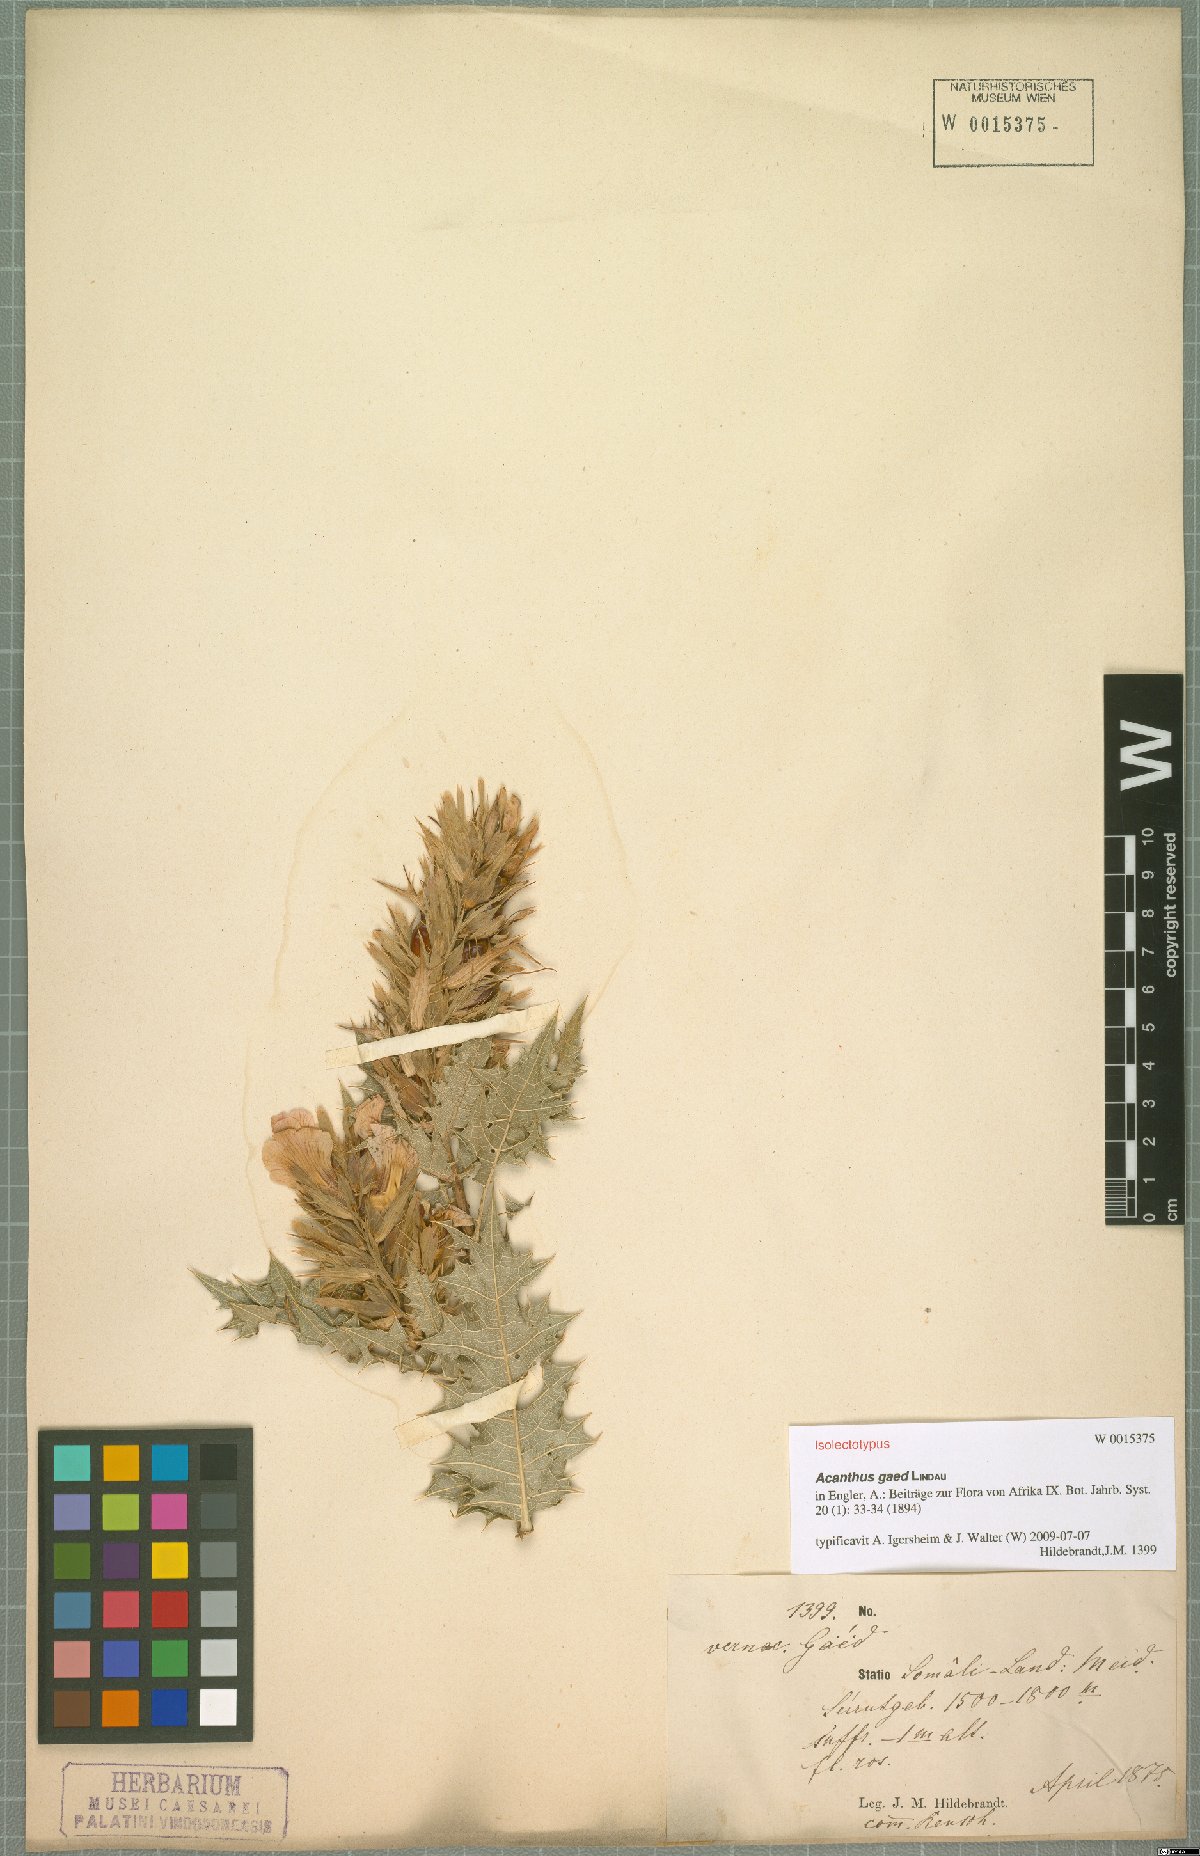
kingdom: Plantae
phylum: Tracheophyta
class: Magnoliopsida
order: Lamiales
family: Acanthaceae
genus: Acanthus
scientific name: Acanthus gaed
